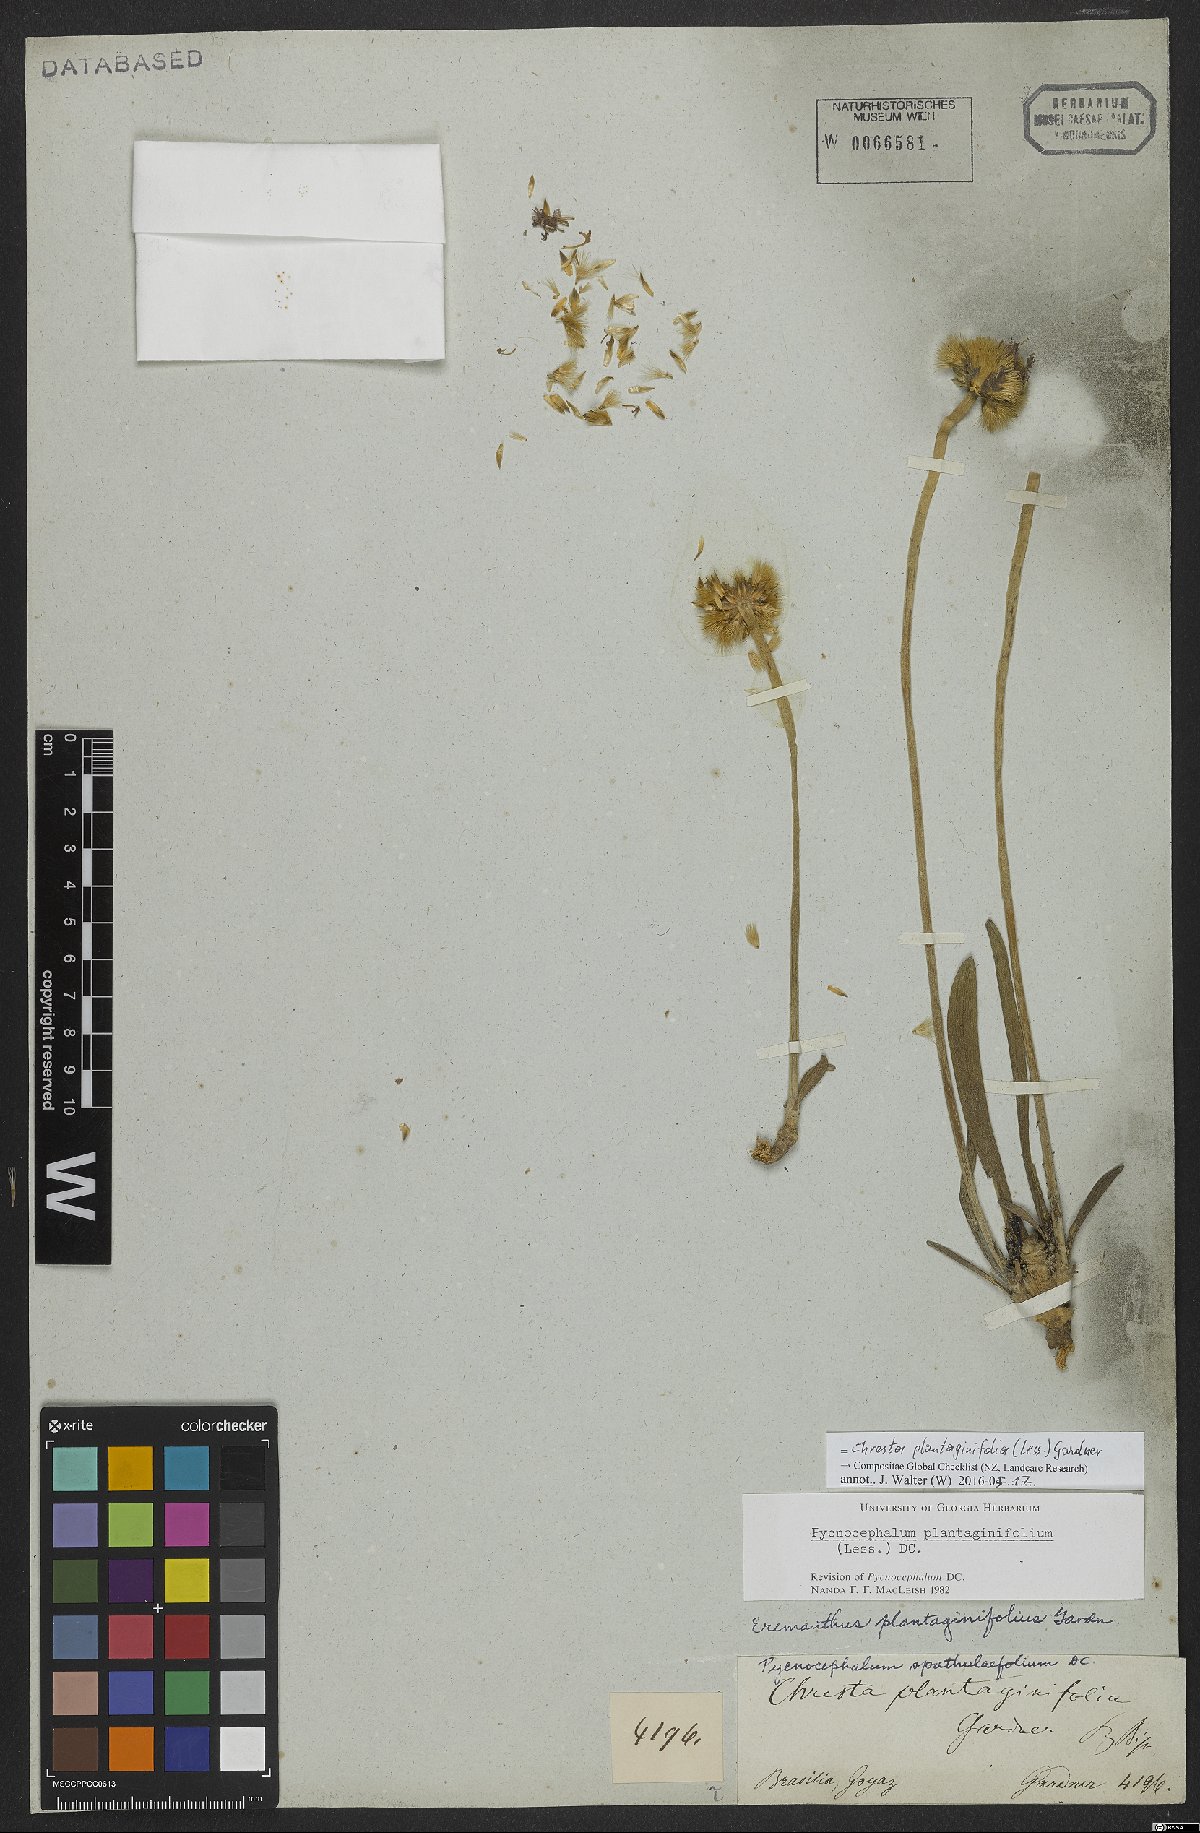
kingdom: Plantae
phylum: Tracheophyta
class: Magnoliopsida
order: Asterales
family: Asteraceae
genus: Chresta
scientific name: Chresta plantaginifolia
